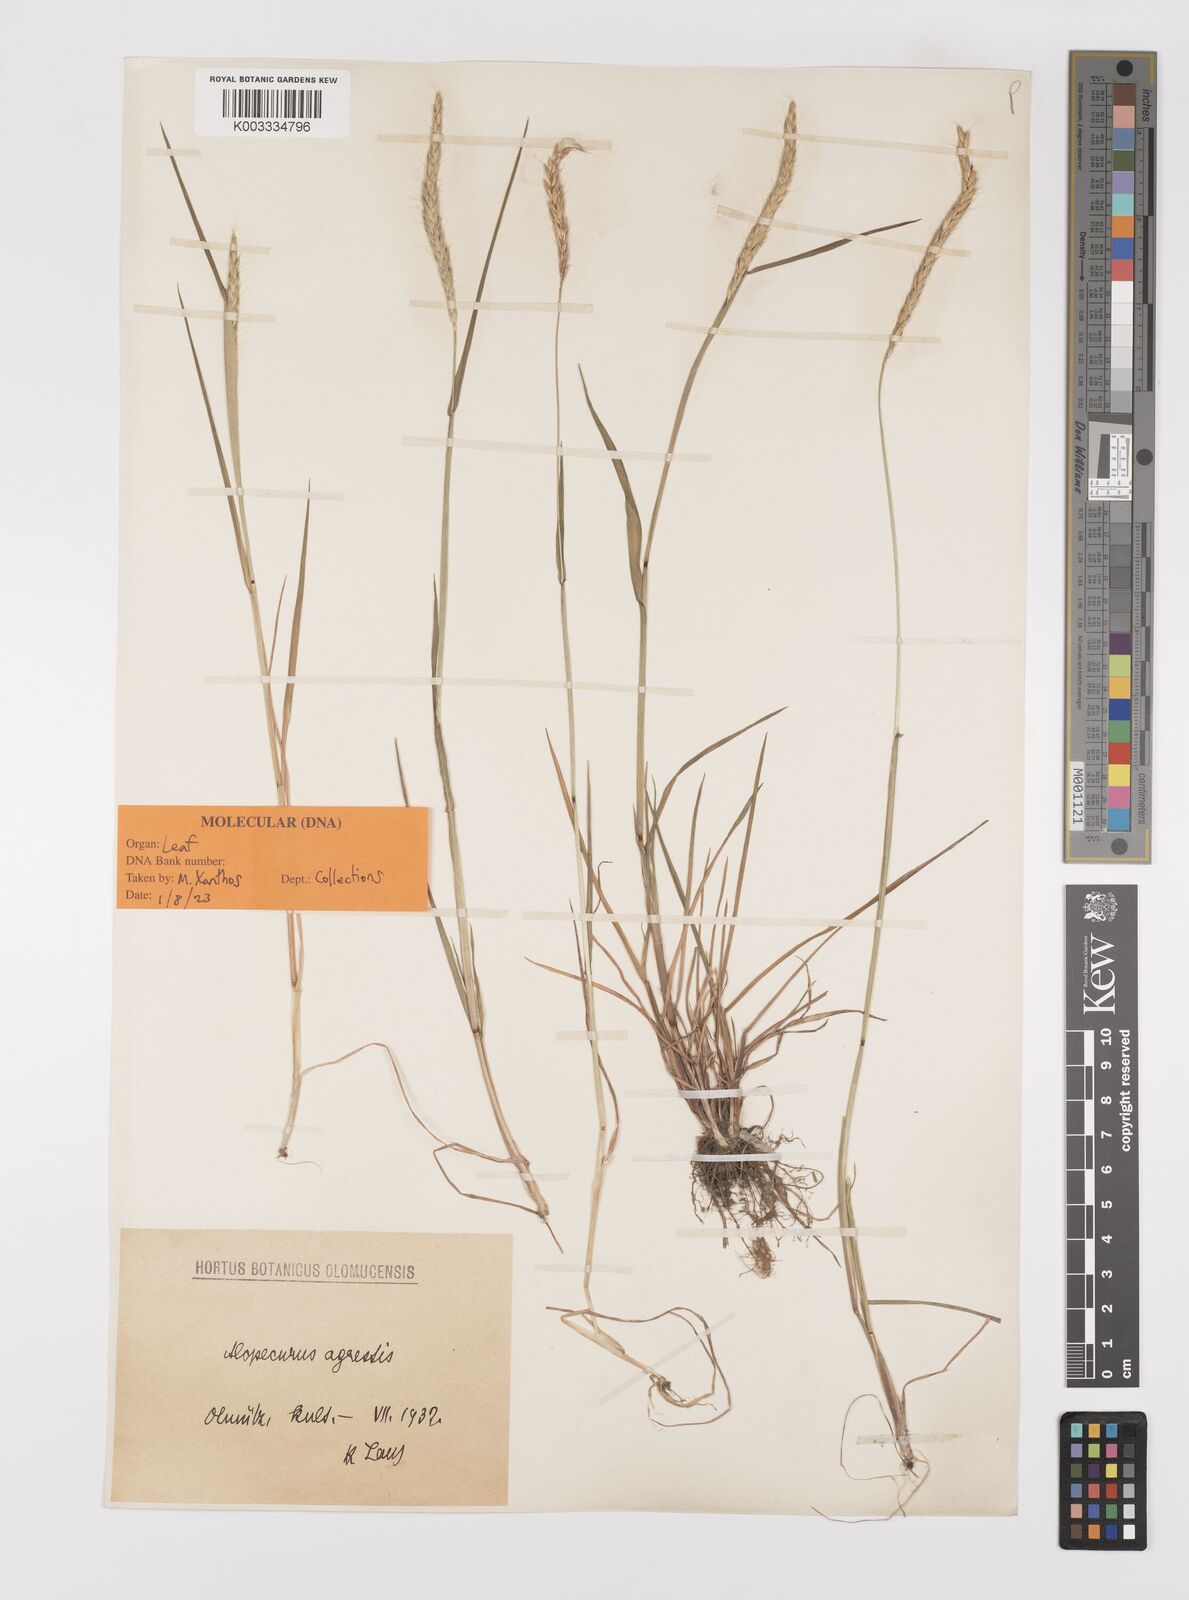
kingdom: Plantae
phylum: Tracheophyta
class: Liliopsida
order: Poales
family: Poaceae
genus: Alopecurus
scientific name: Alopecurus myosuroides
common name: Black-grass
